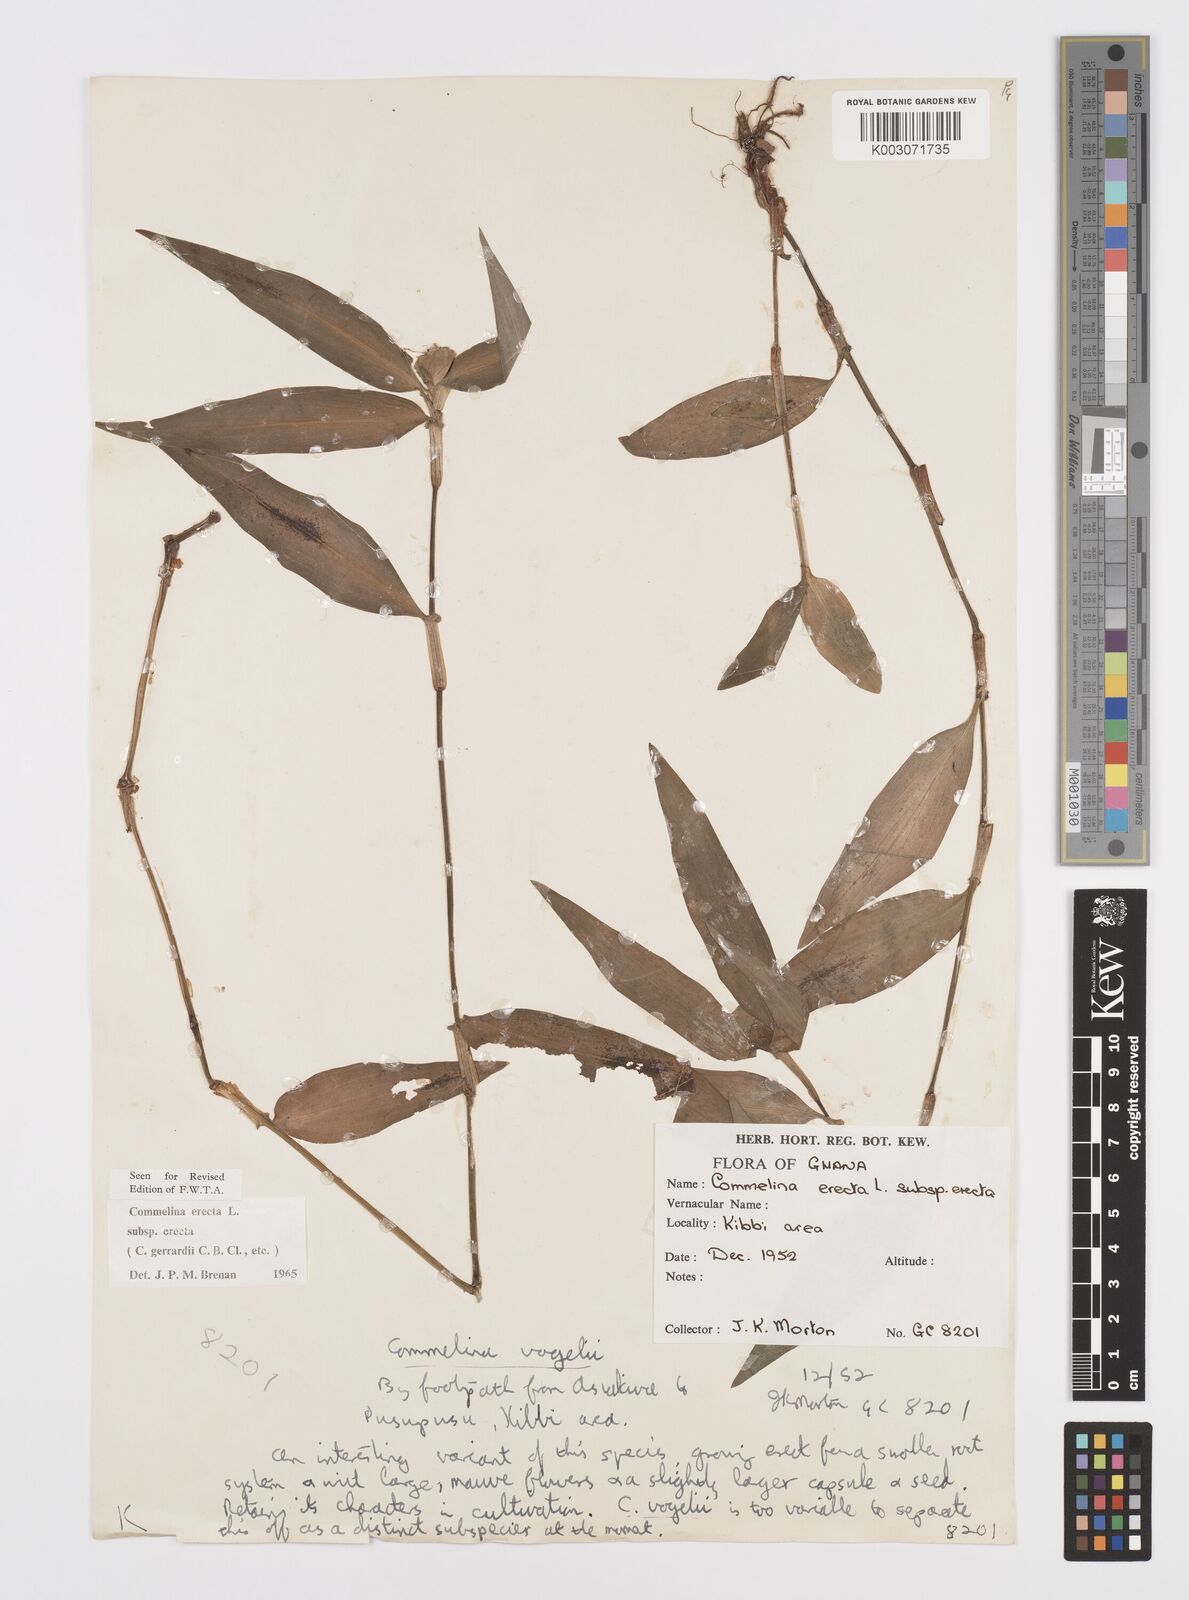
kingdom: Plantae
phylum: Tracheophyta
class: Liliopsida
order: Commelinales
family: Commelinaceae
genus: Commelina
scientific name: Commelina erecta
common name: Blousel blommetjie
